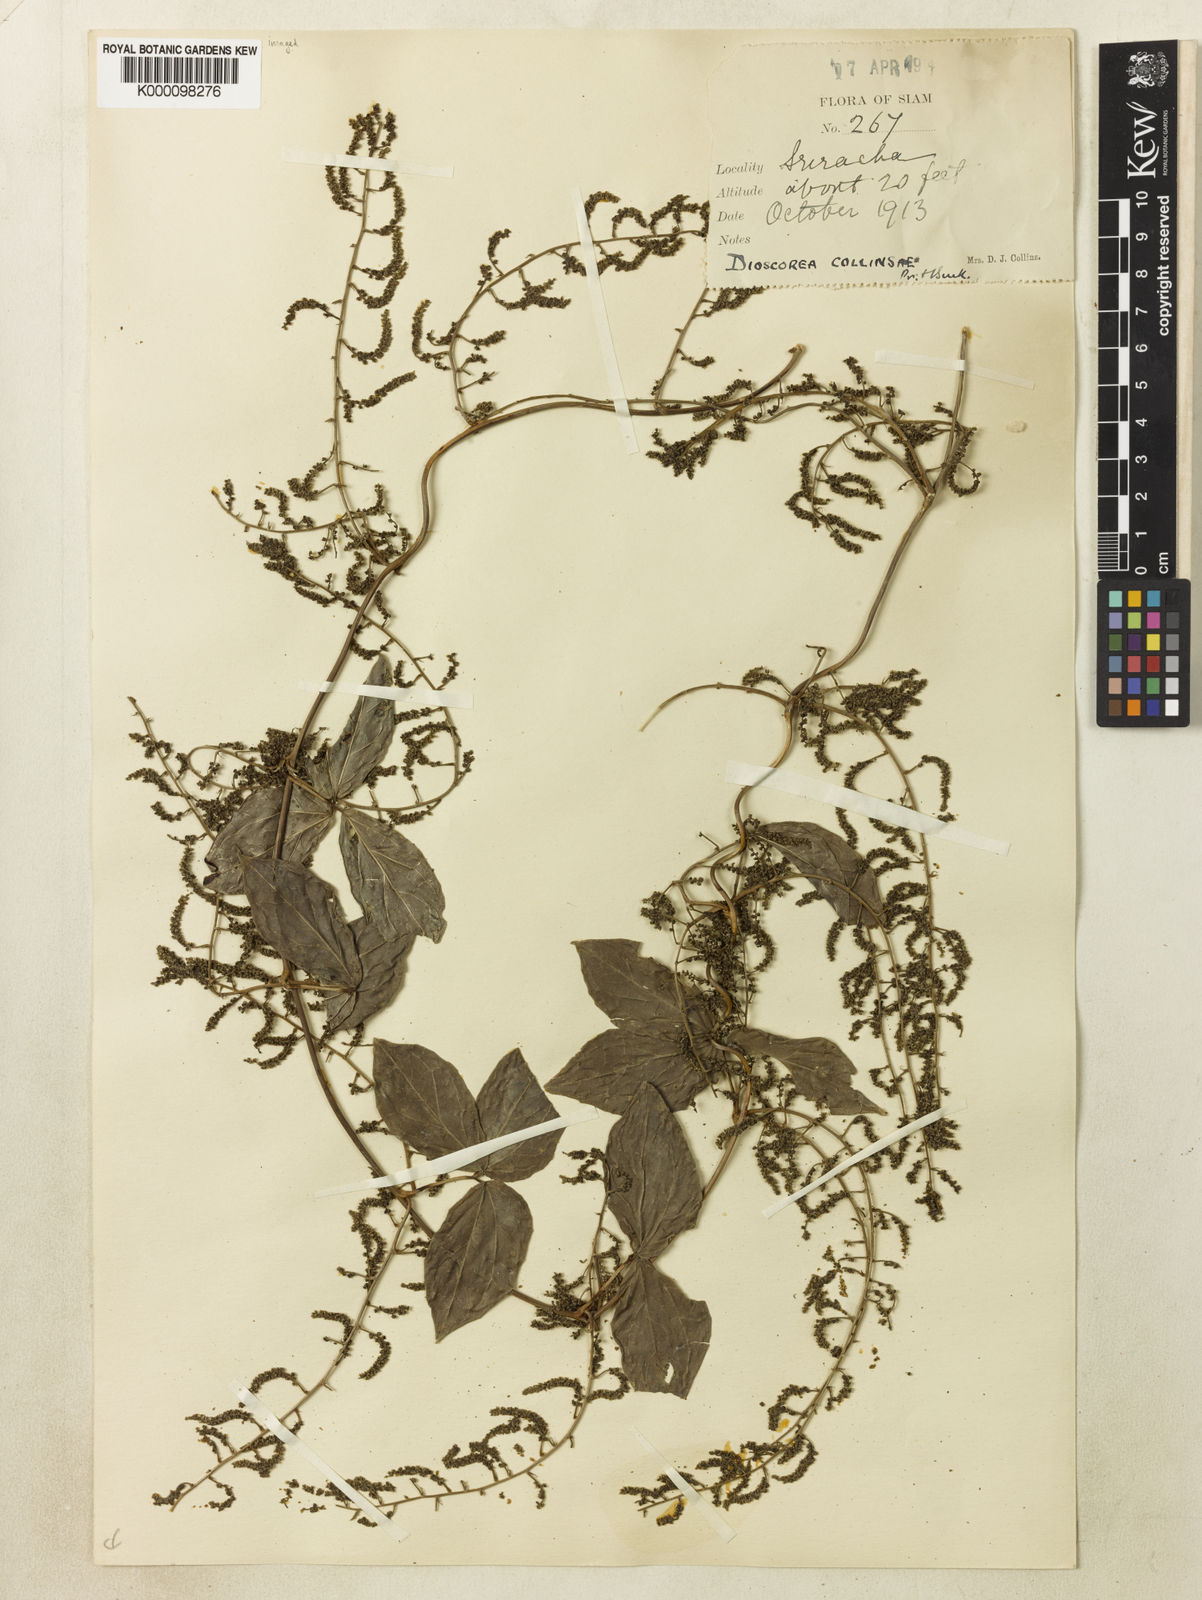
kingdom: Plantae
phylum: Tracheophyta
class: Liliopsida
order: Dioscoreales
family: Dioscoreaceae
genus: Dioscorea
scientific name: Dioscorea arachidna
